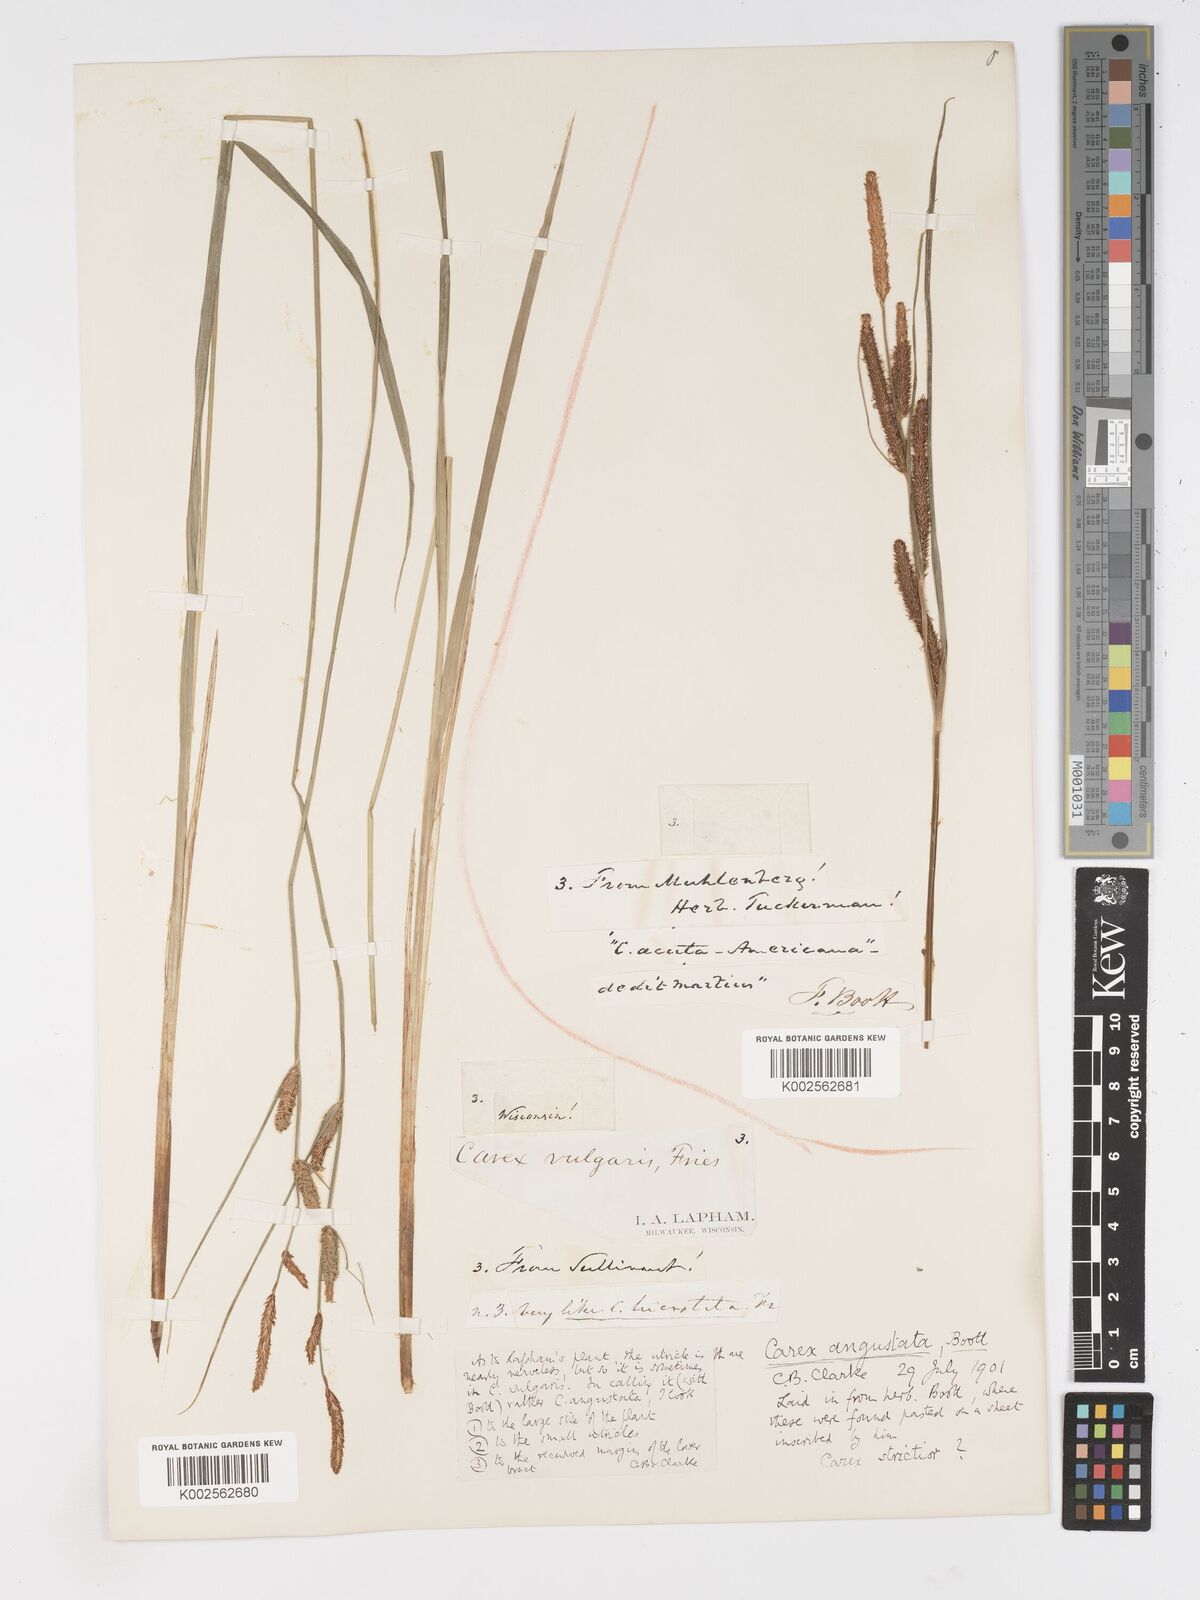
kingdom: Plantae
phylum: Tracheophyta
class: Liliopsida
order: Poales
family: Cyperaceae
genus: Carex
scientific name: Carex stricta
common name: Hummock sedge
